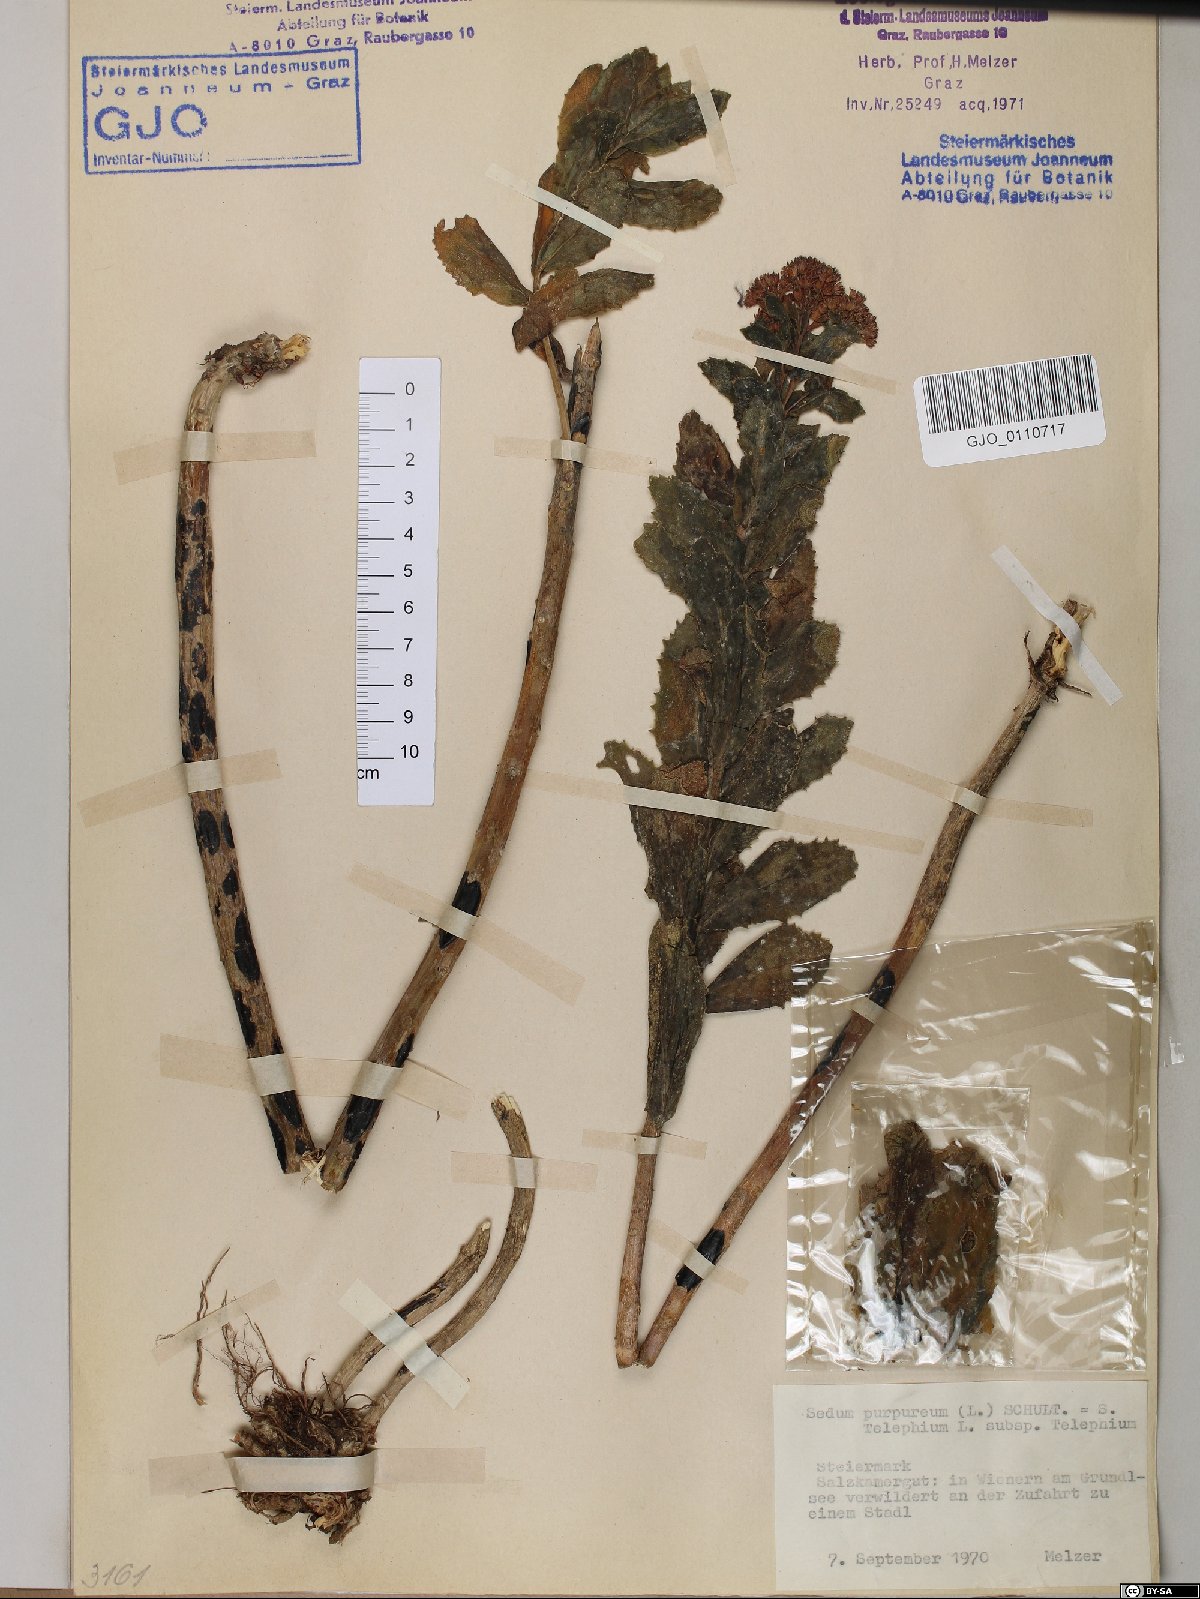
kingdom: Plantae
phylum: Tracheophyta
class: Magnoliopsida
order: Saxifragales
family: Crassulaceae
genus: Hylotelephium
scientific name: Hylotelephium telephium
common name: Live-forever
